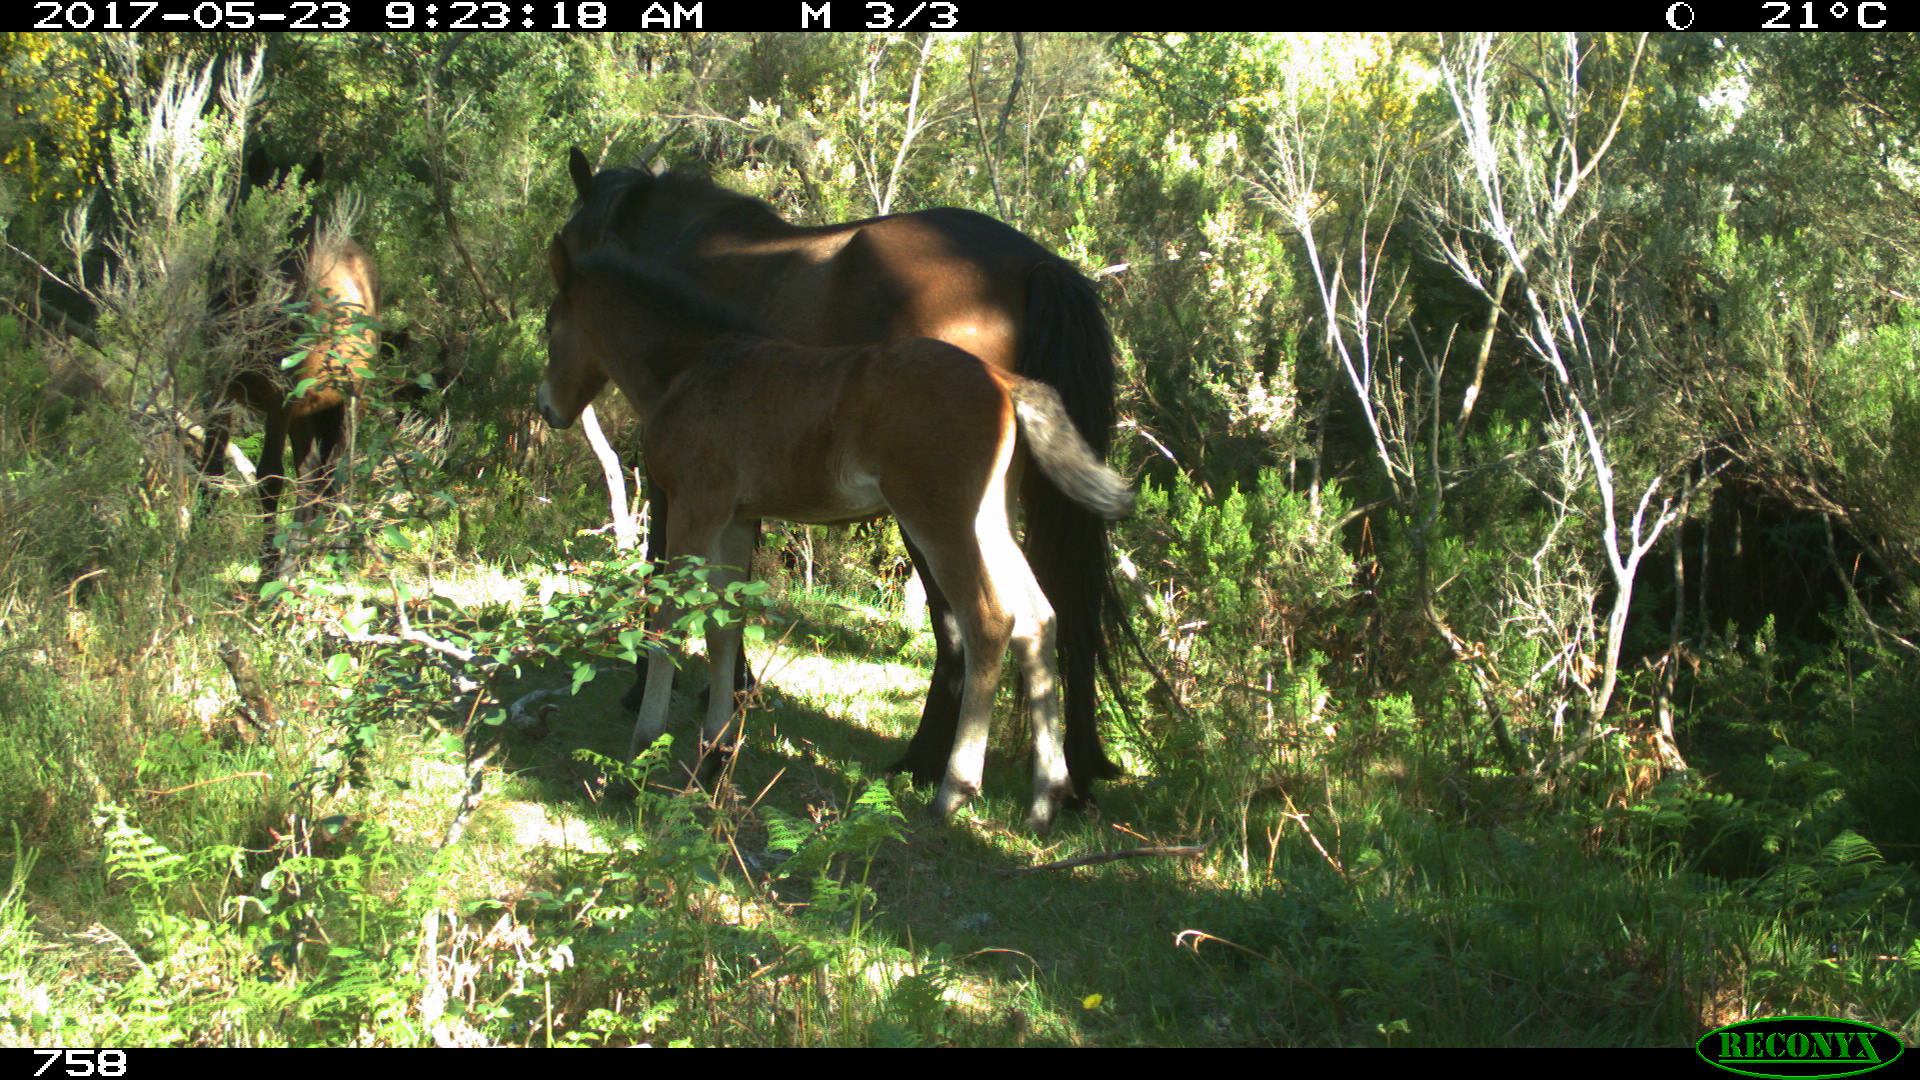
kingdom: Animalia
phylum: Chordata
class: Mammalia
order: Perissodactyla
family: Equidae
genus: Equus
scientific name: Equus caballus
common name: Horse
